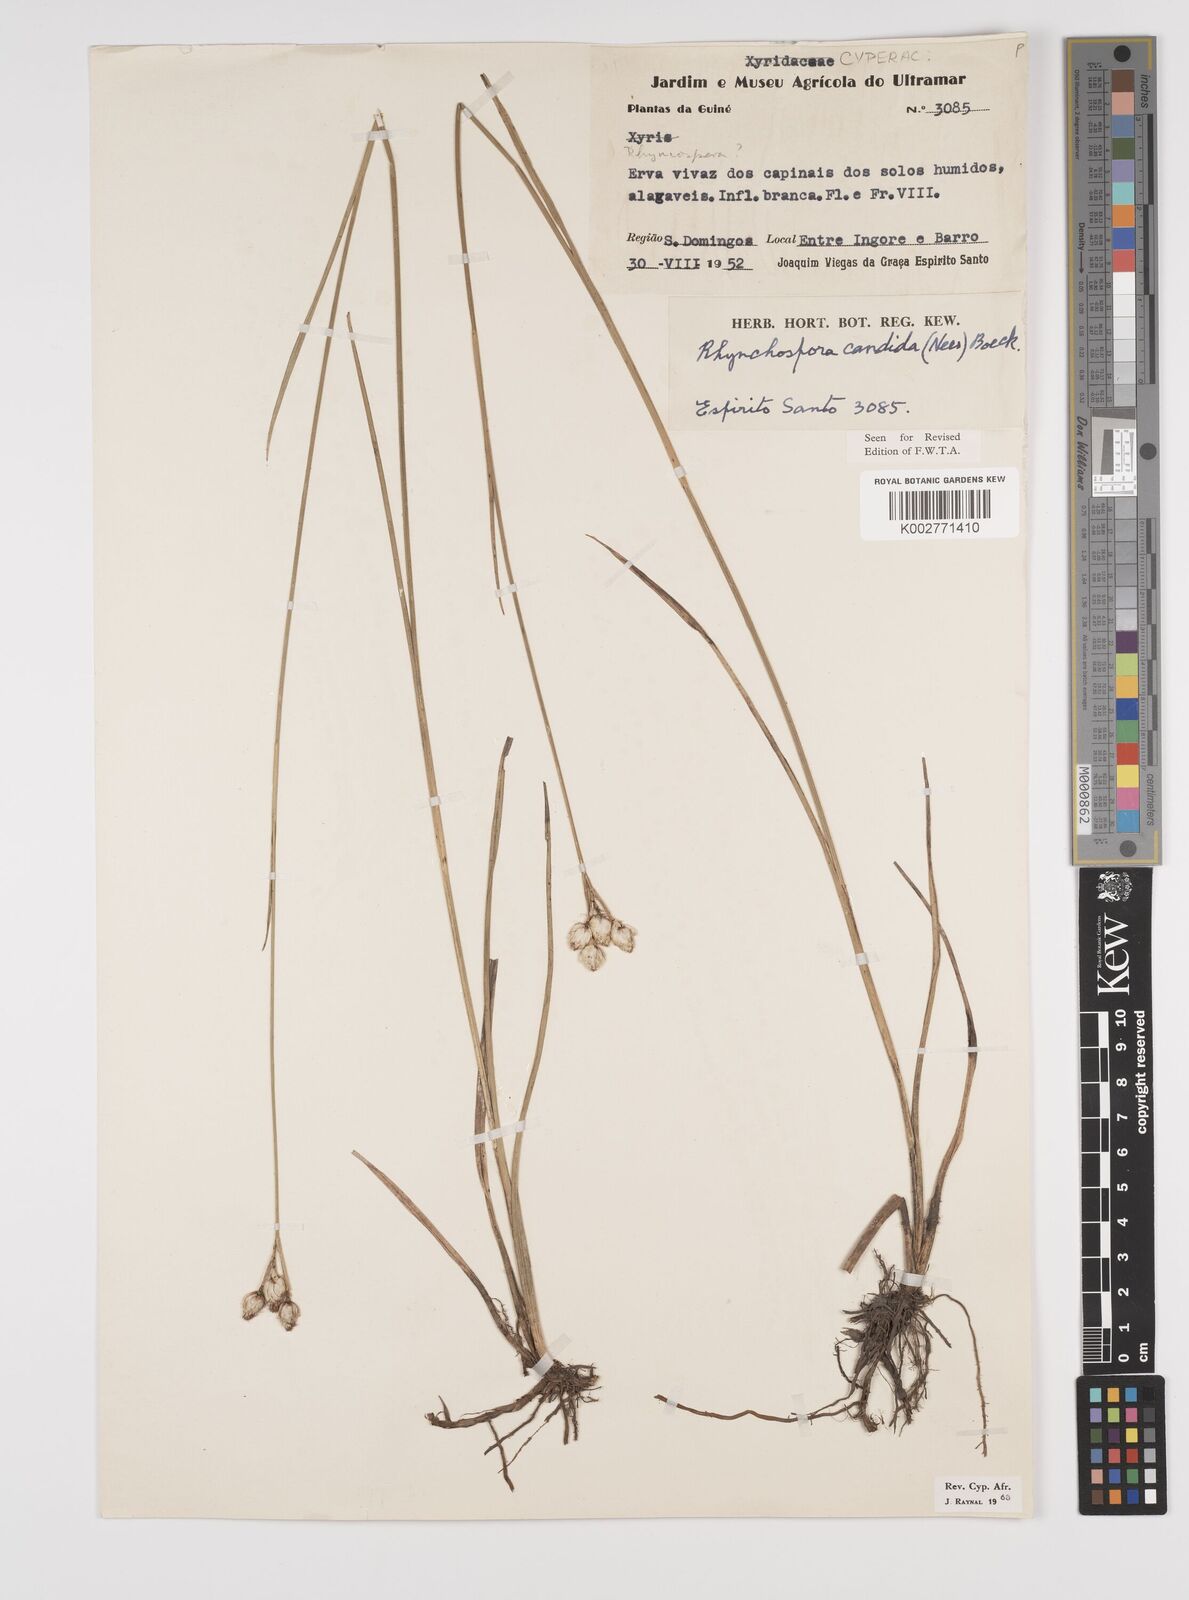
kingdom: Plantae
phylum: Tracheophyta
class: Liliopsida
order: Poales
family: Cyperaceae
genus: Rhynchospora
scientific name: Rhynchospora candida
